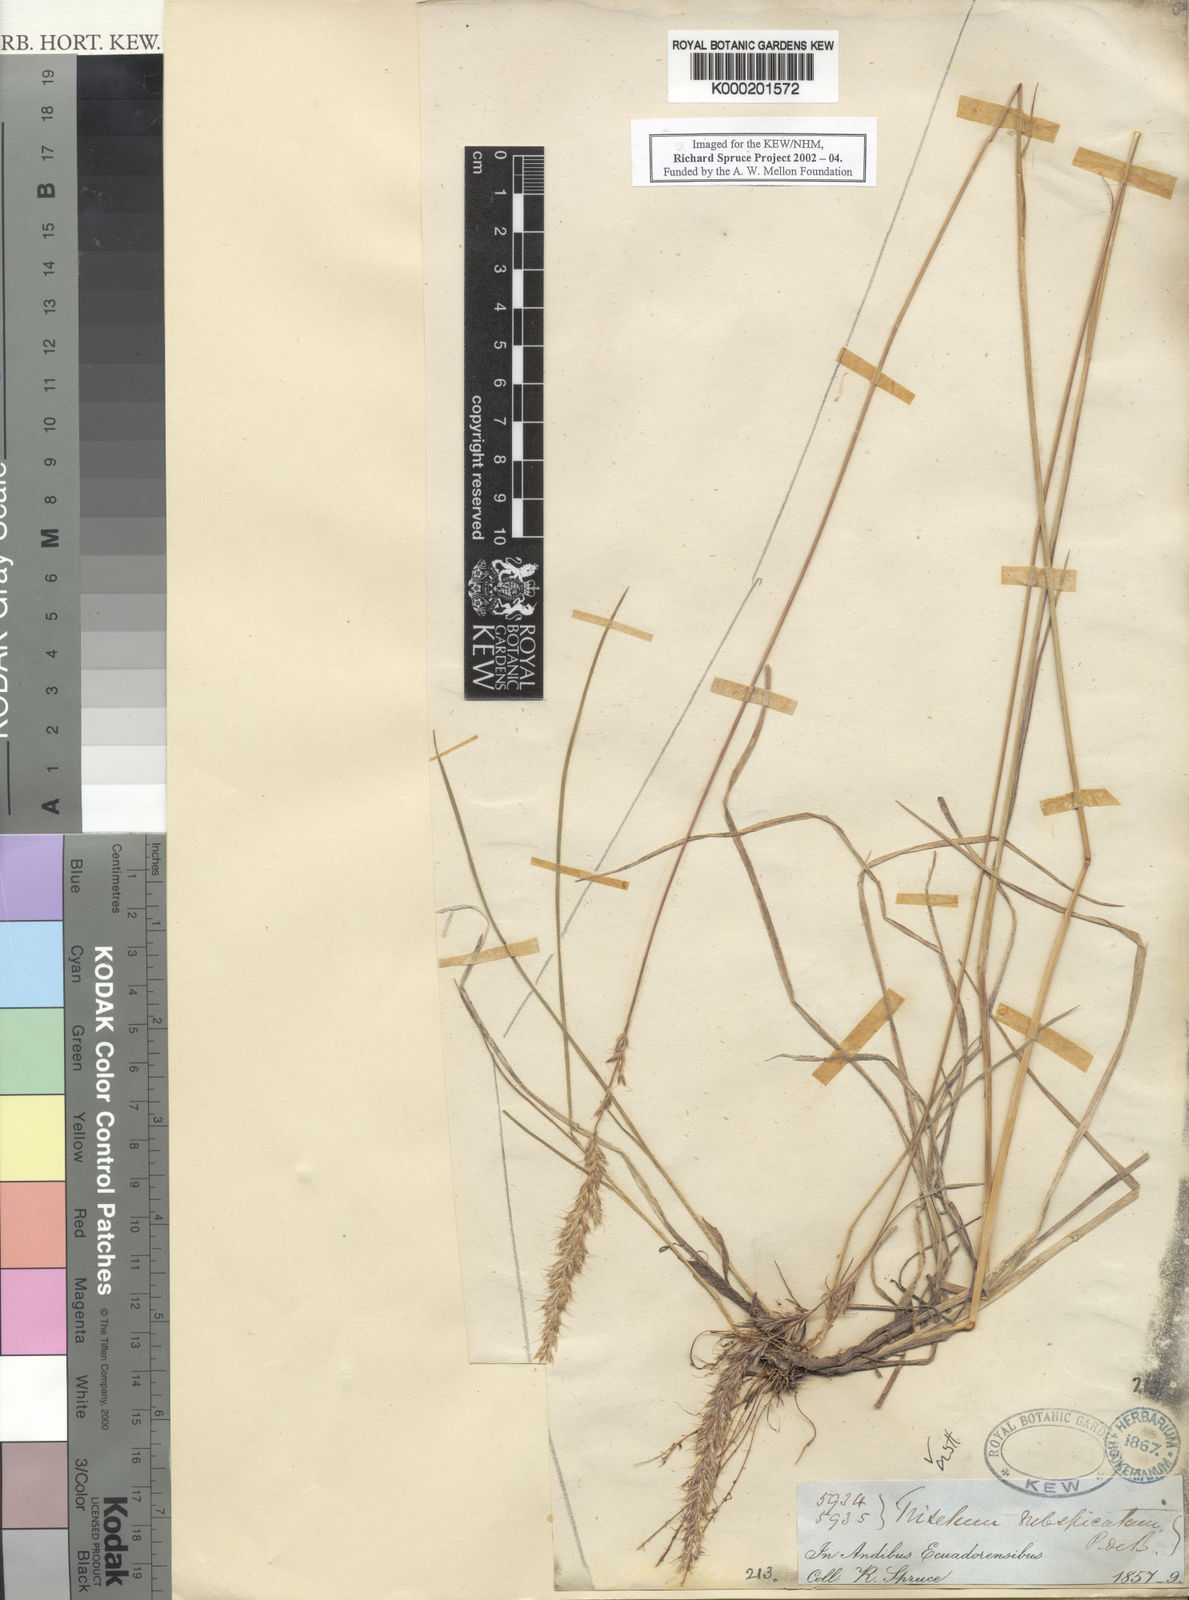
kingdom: Plantae
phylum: Tracheophyta
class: Liliopsida
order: Poales
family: Poaceae
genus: Koeleria
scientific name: Koeleria spicata
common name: Mountain trisetum
